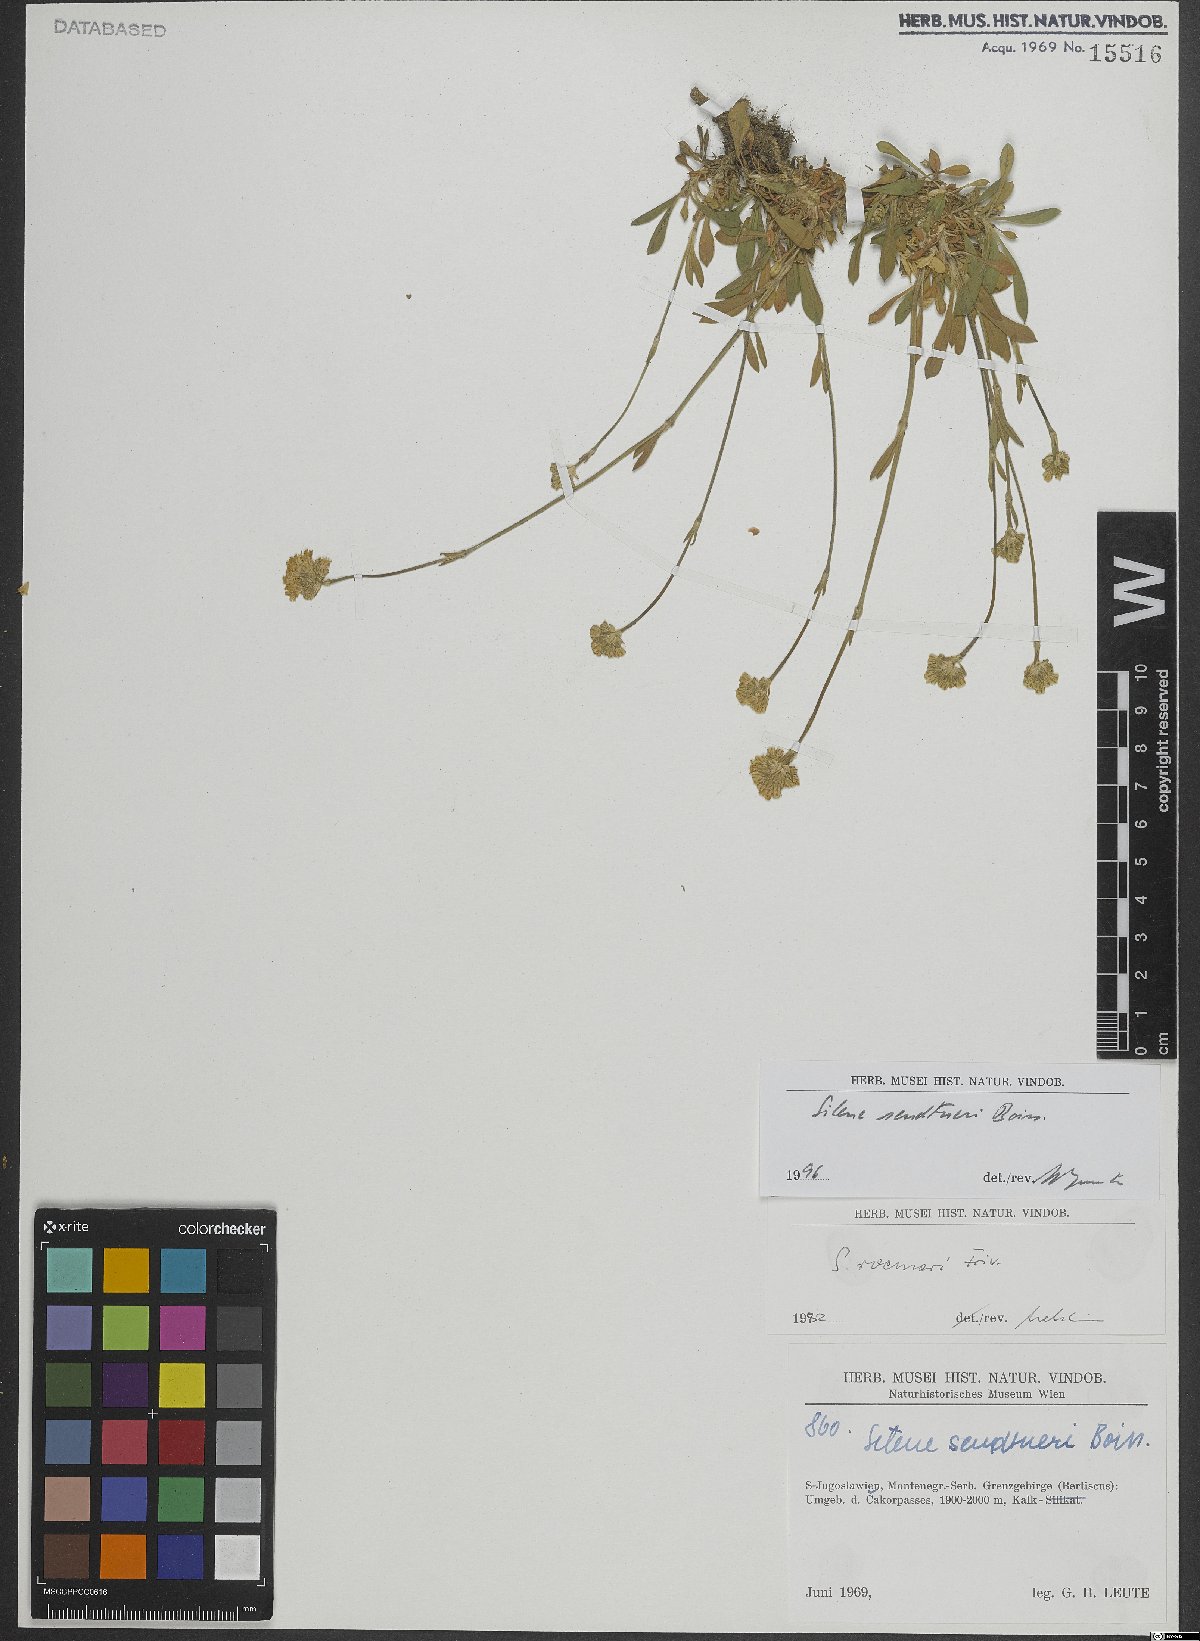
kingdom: Plantae
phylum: Tracheophyta
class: Magnoliopsida
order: Caryophyllales
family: Caryophyllaceae
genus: Silene
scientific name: Silene sendtneri
